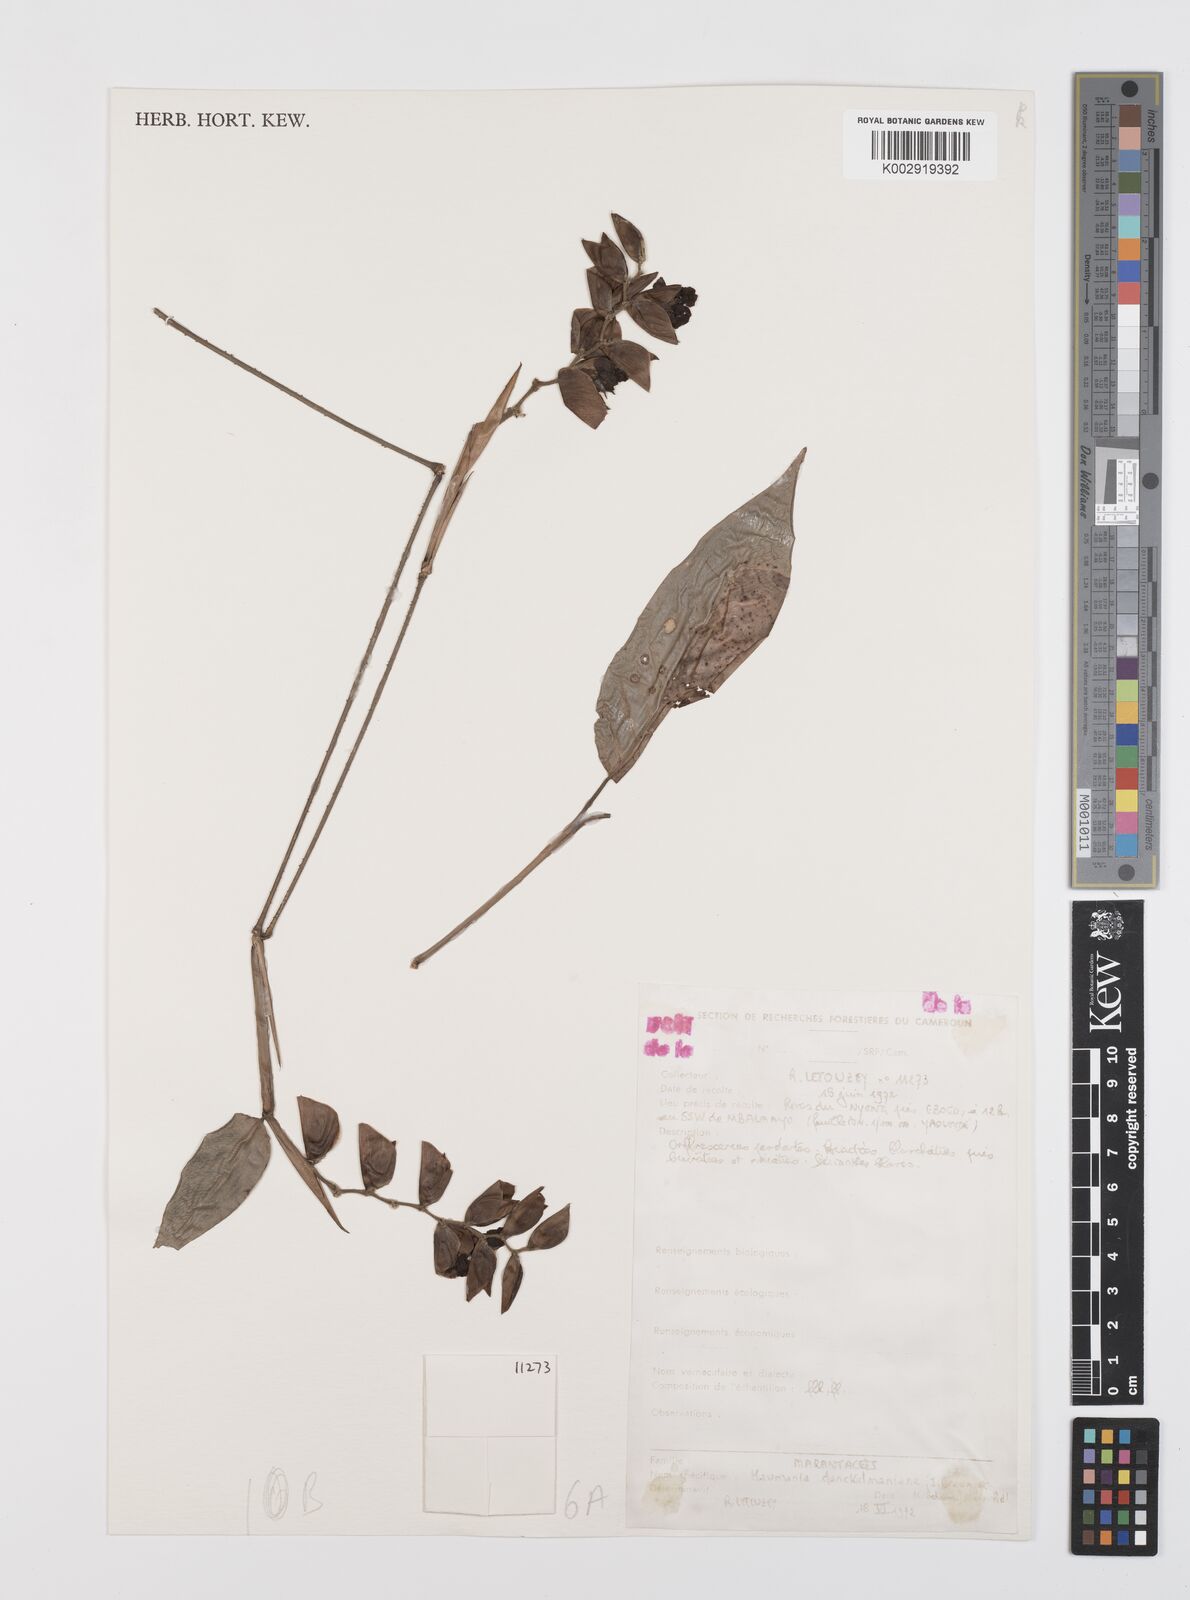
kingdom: Plantae
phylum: Tracheophyta
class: Liliopsida
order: Zingiberales
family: Marantaceae
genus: Haumania
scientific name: Haumania danckelmaniana
